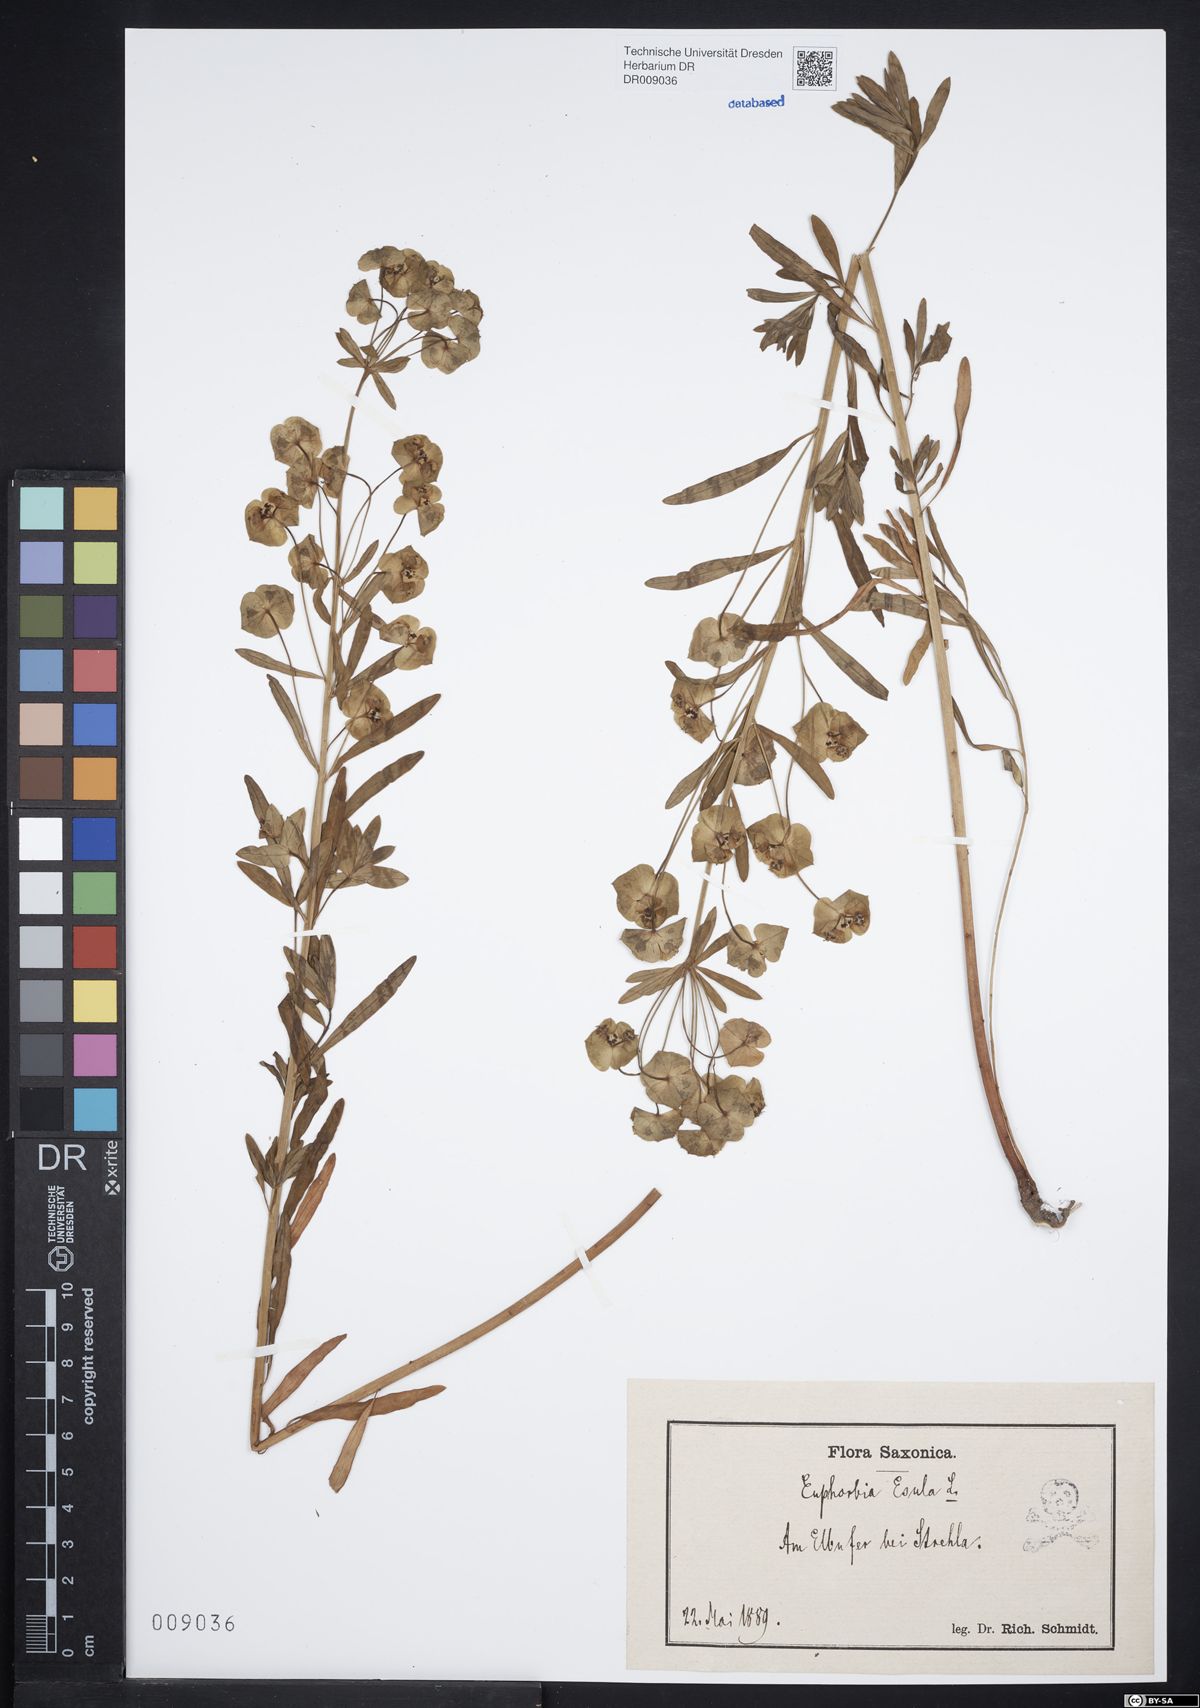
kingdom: Plantae
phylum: Tracheophyta
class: Magnoliopsida
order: Malpighiales
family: Euphorbiaceae
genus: Euphorbia
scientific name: Euphorbia esula
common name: Leafy spurge
